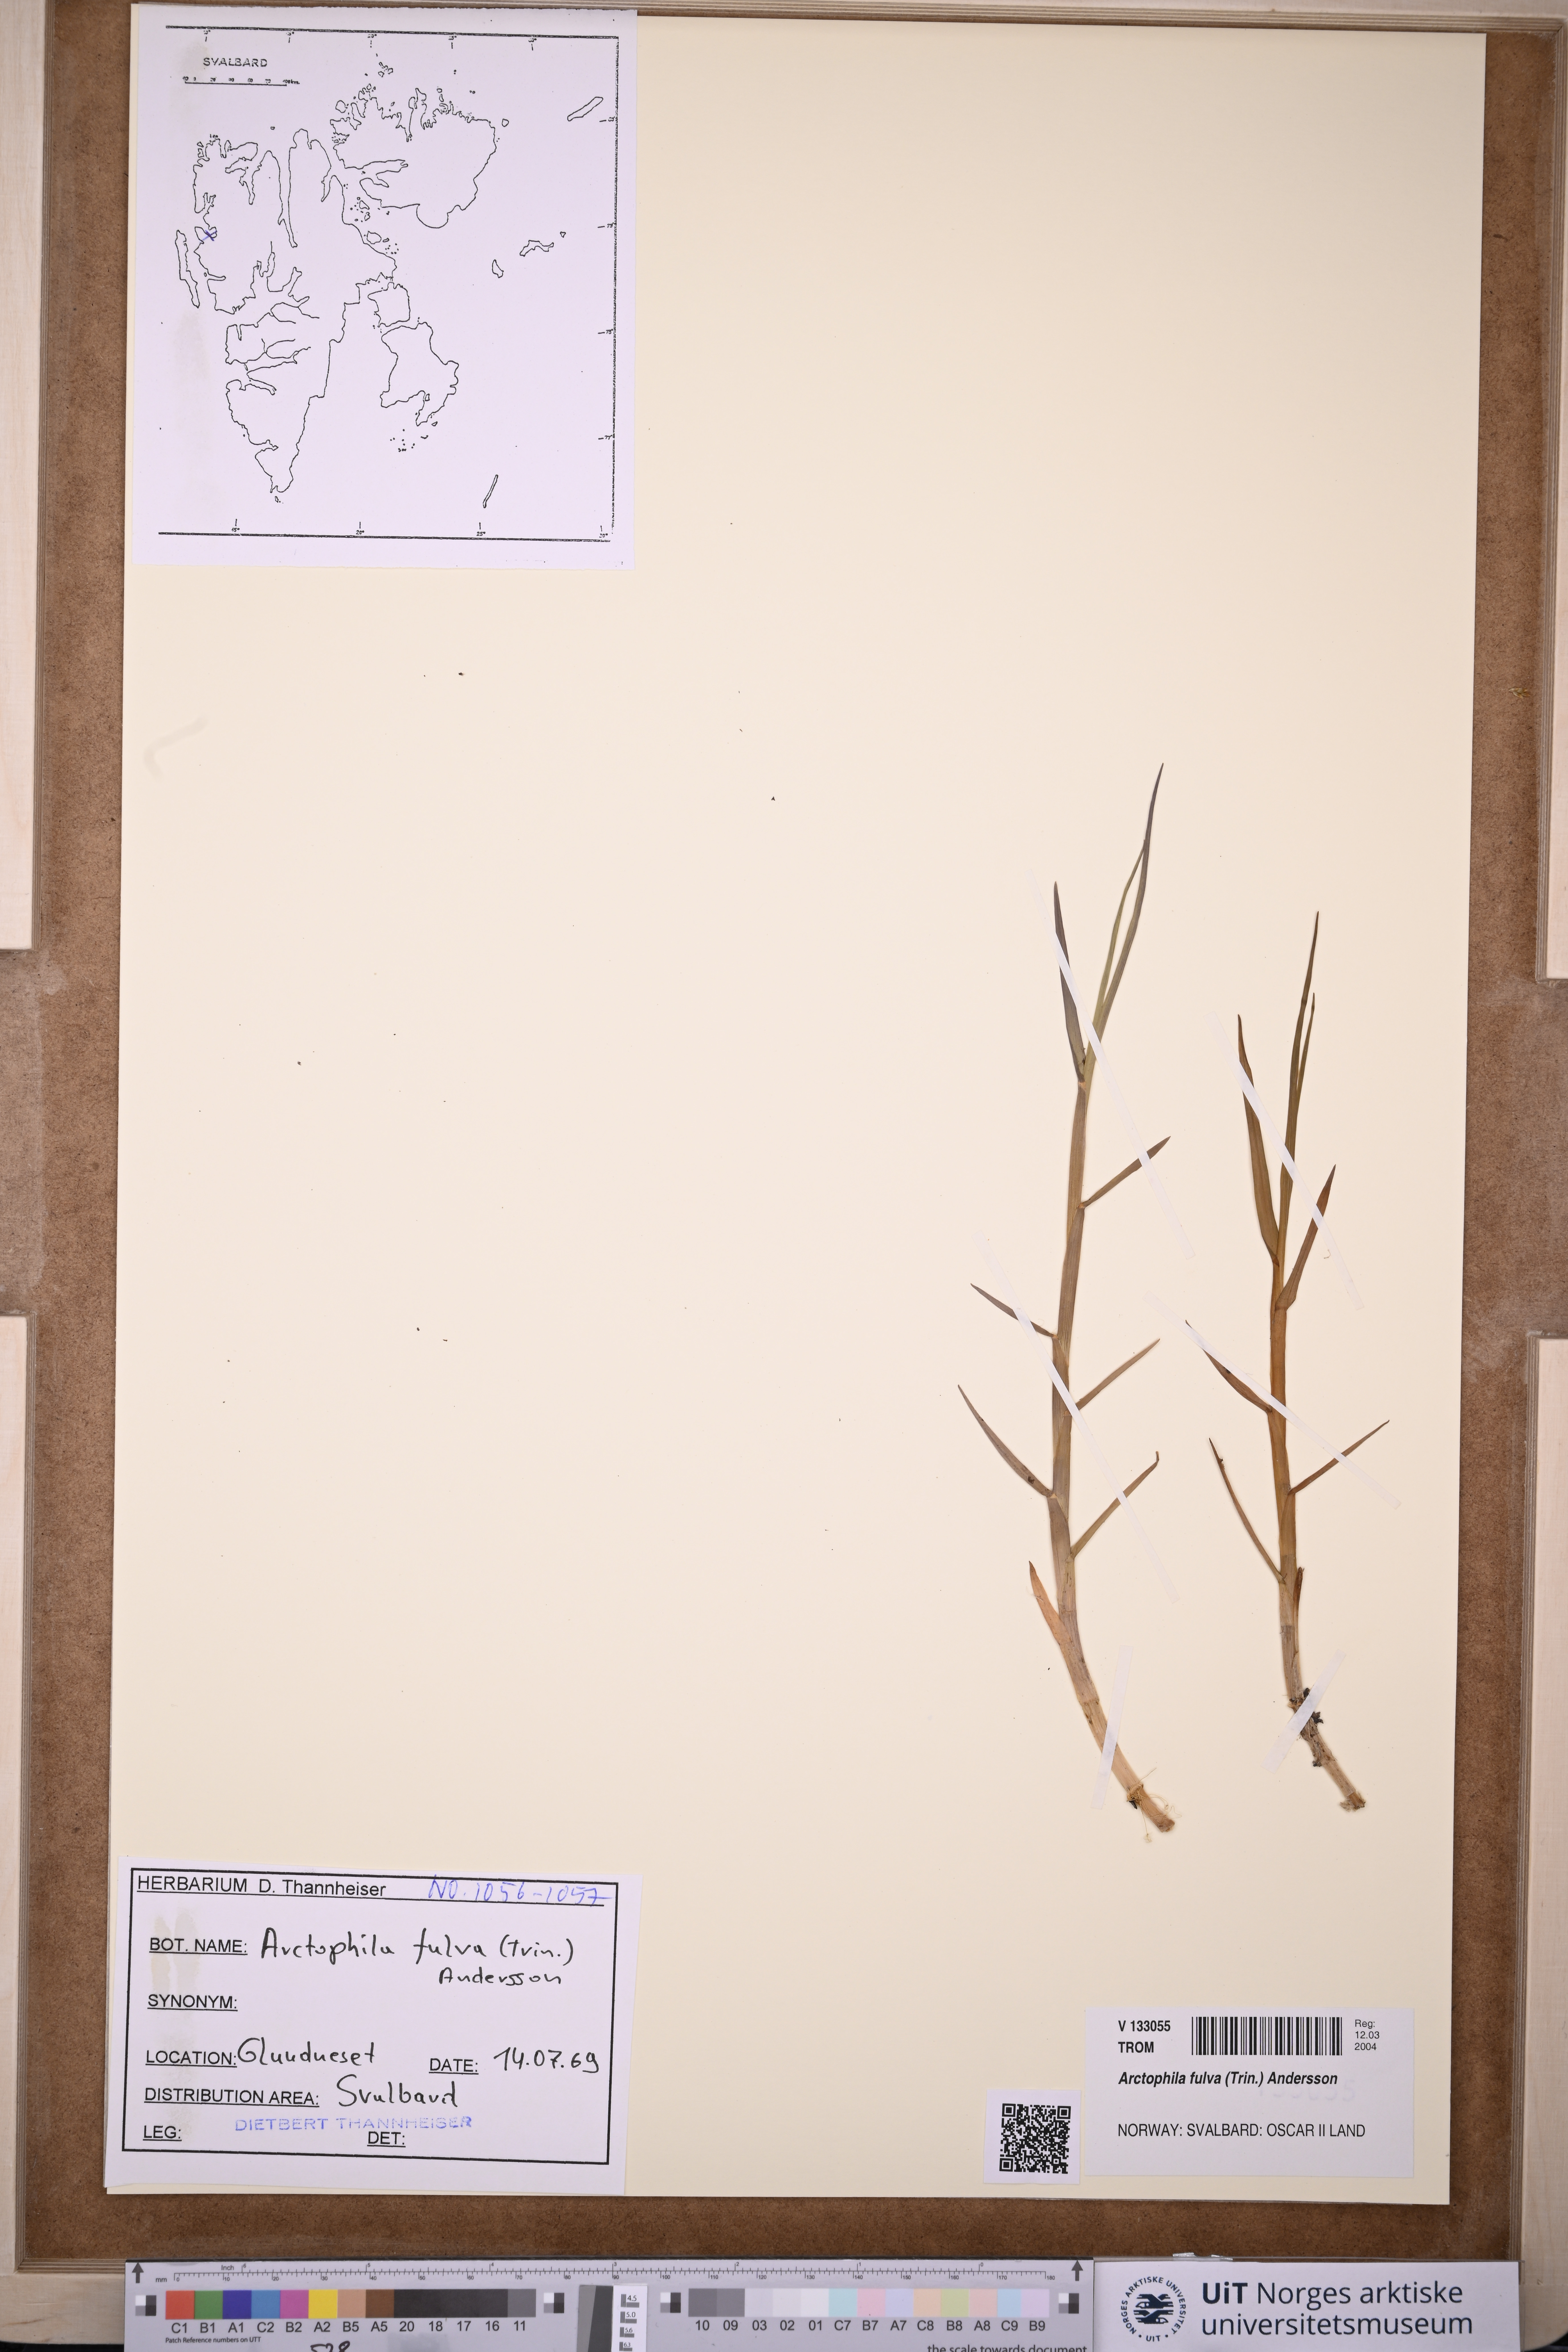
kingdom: Plantae
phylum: Tracheophyta
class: Liliopsida
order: Poales
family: Poaceae
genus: Dupontia
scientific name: Dupontia fulva
